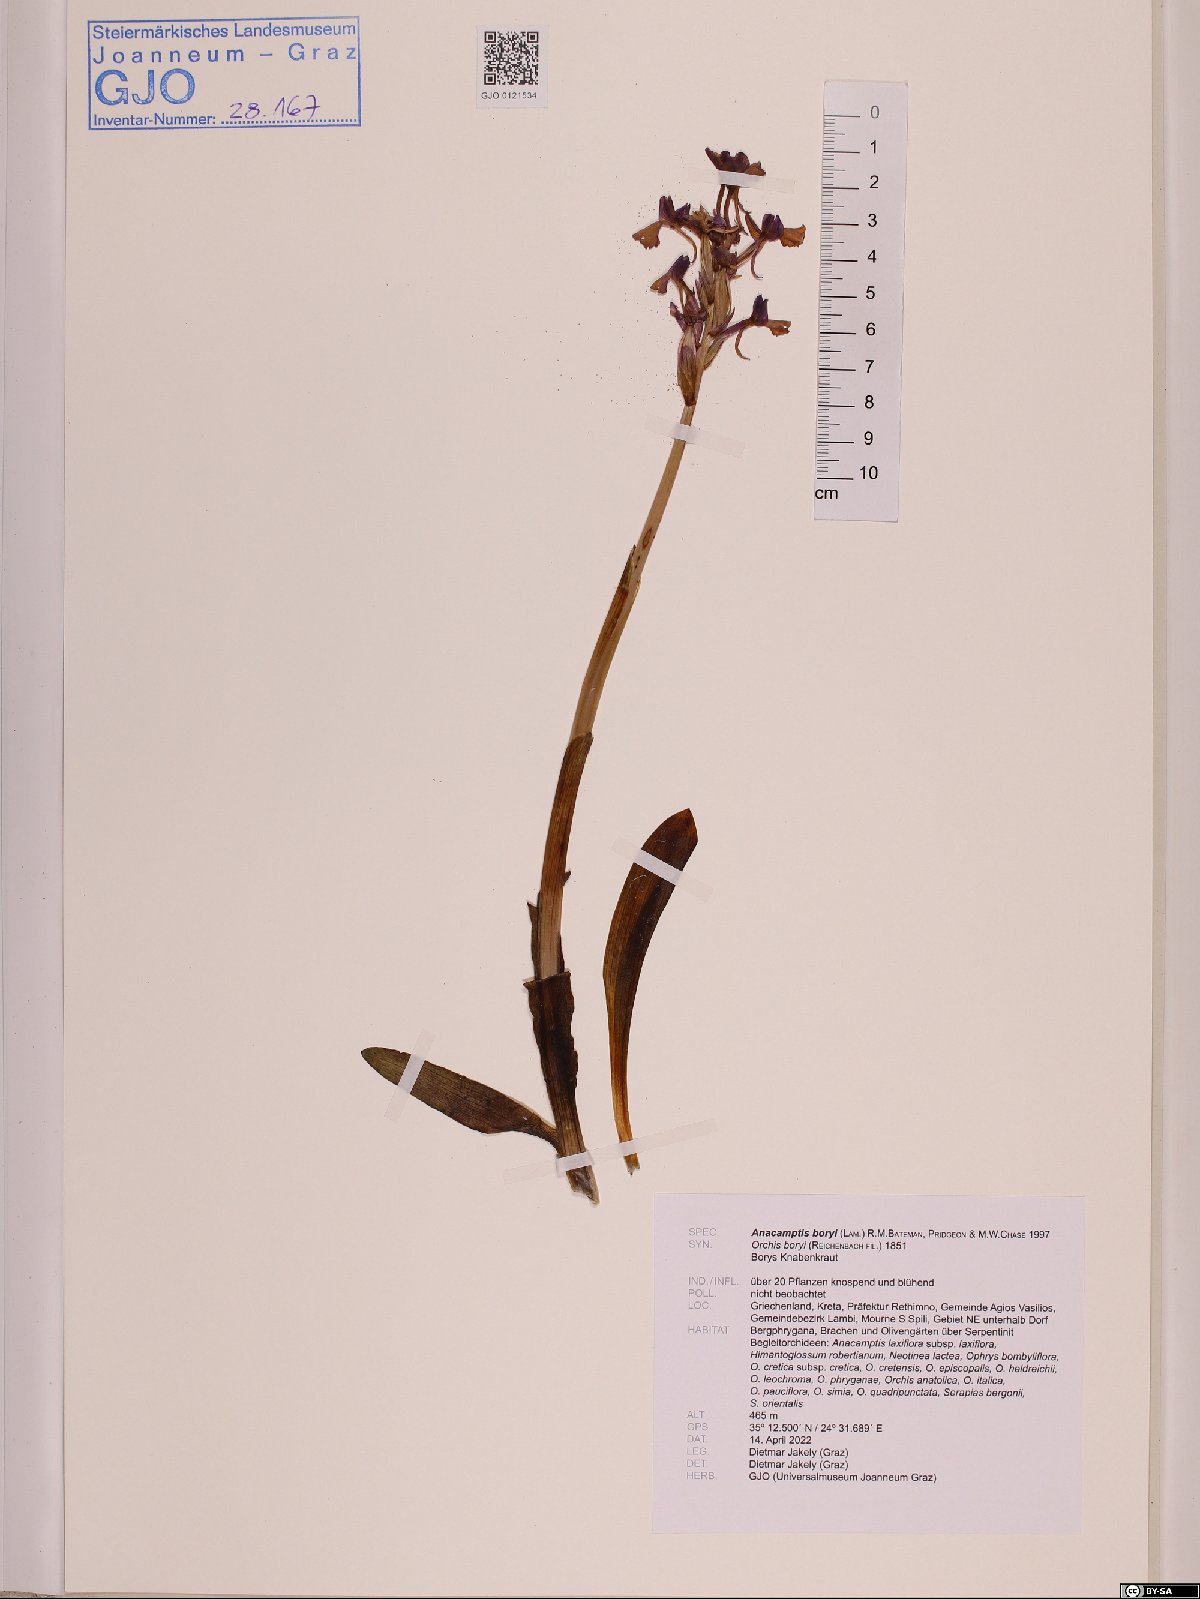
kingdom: Plantae
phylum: Tracheophyta
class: Liliopsida
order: Asparagales
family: Orchidaceae
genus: Anacamptis
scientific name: Anacamptis boryi
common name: Bory's anacamptis
